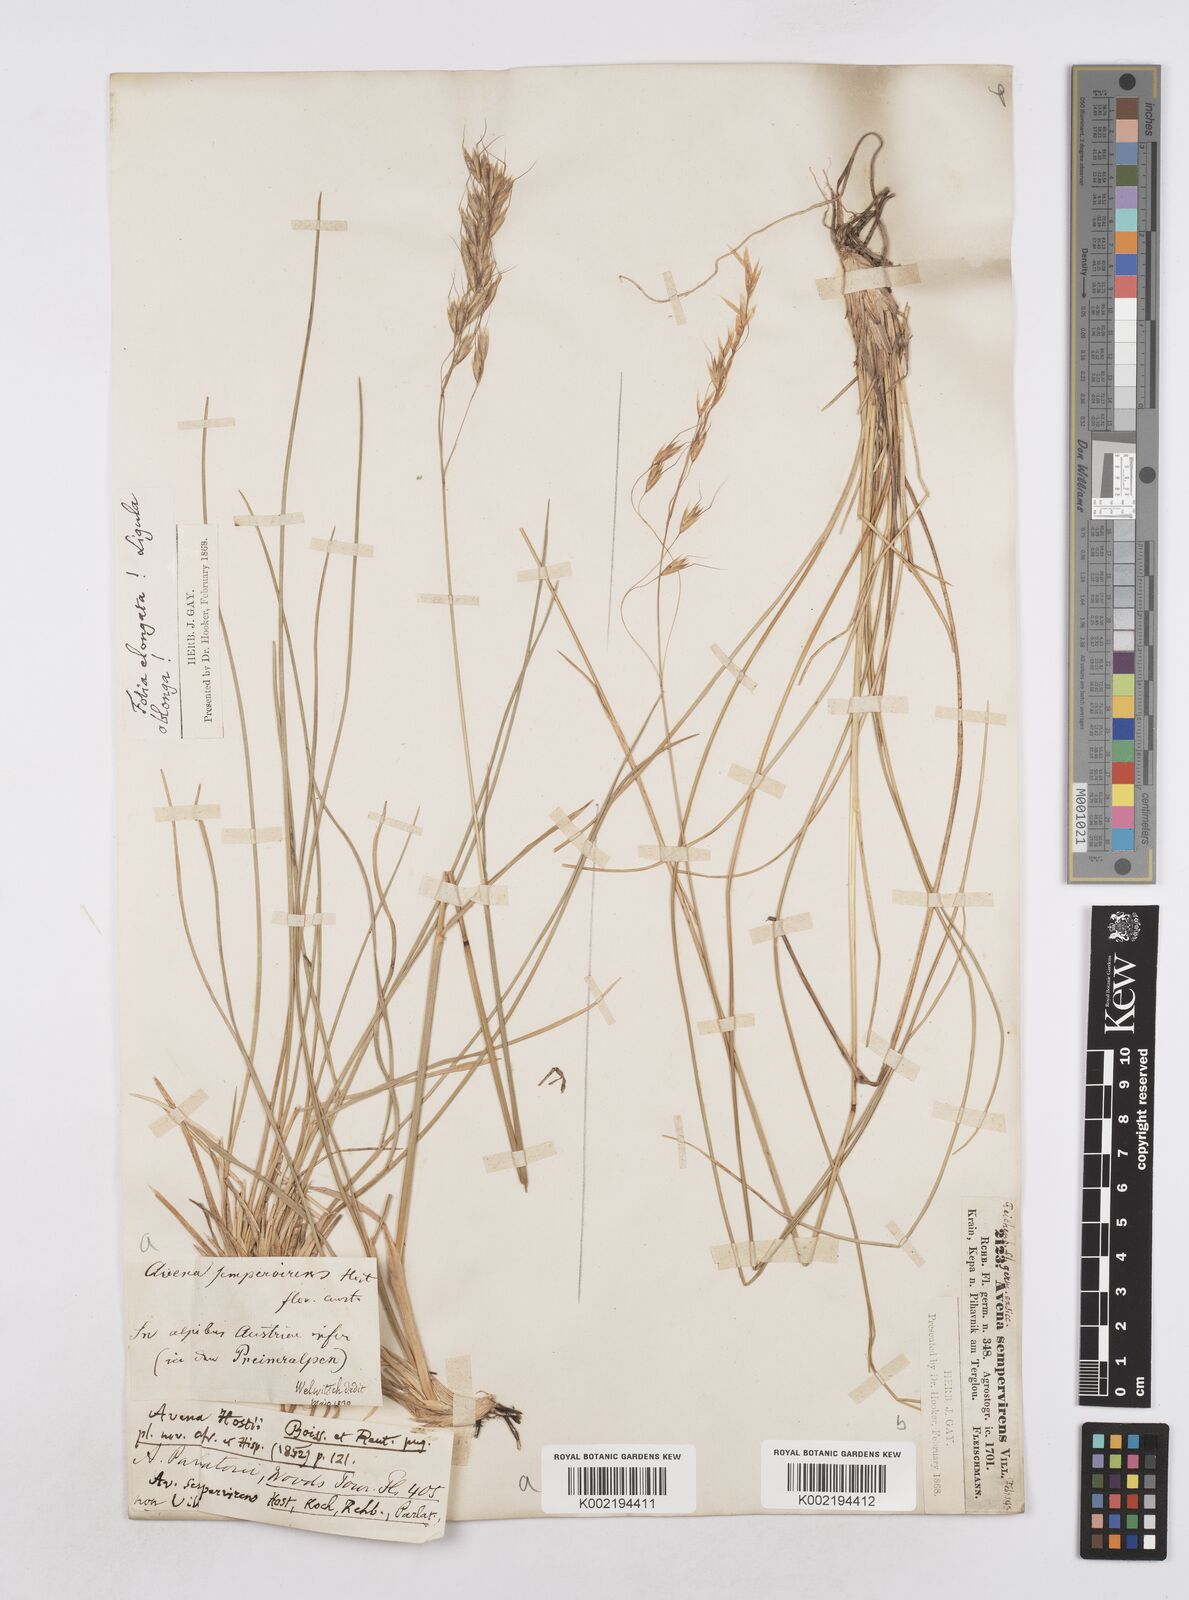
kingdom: Plantae
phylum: Tracheophyta
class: Liliopsida
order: Poales
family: Poaceae
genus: Helictotrichon
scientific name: Helictotrichon sempervirens
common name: Blue oat-grass
